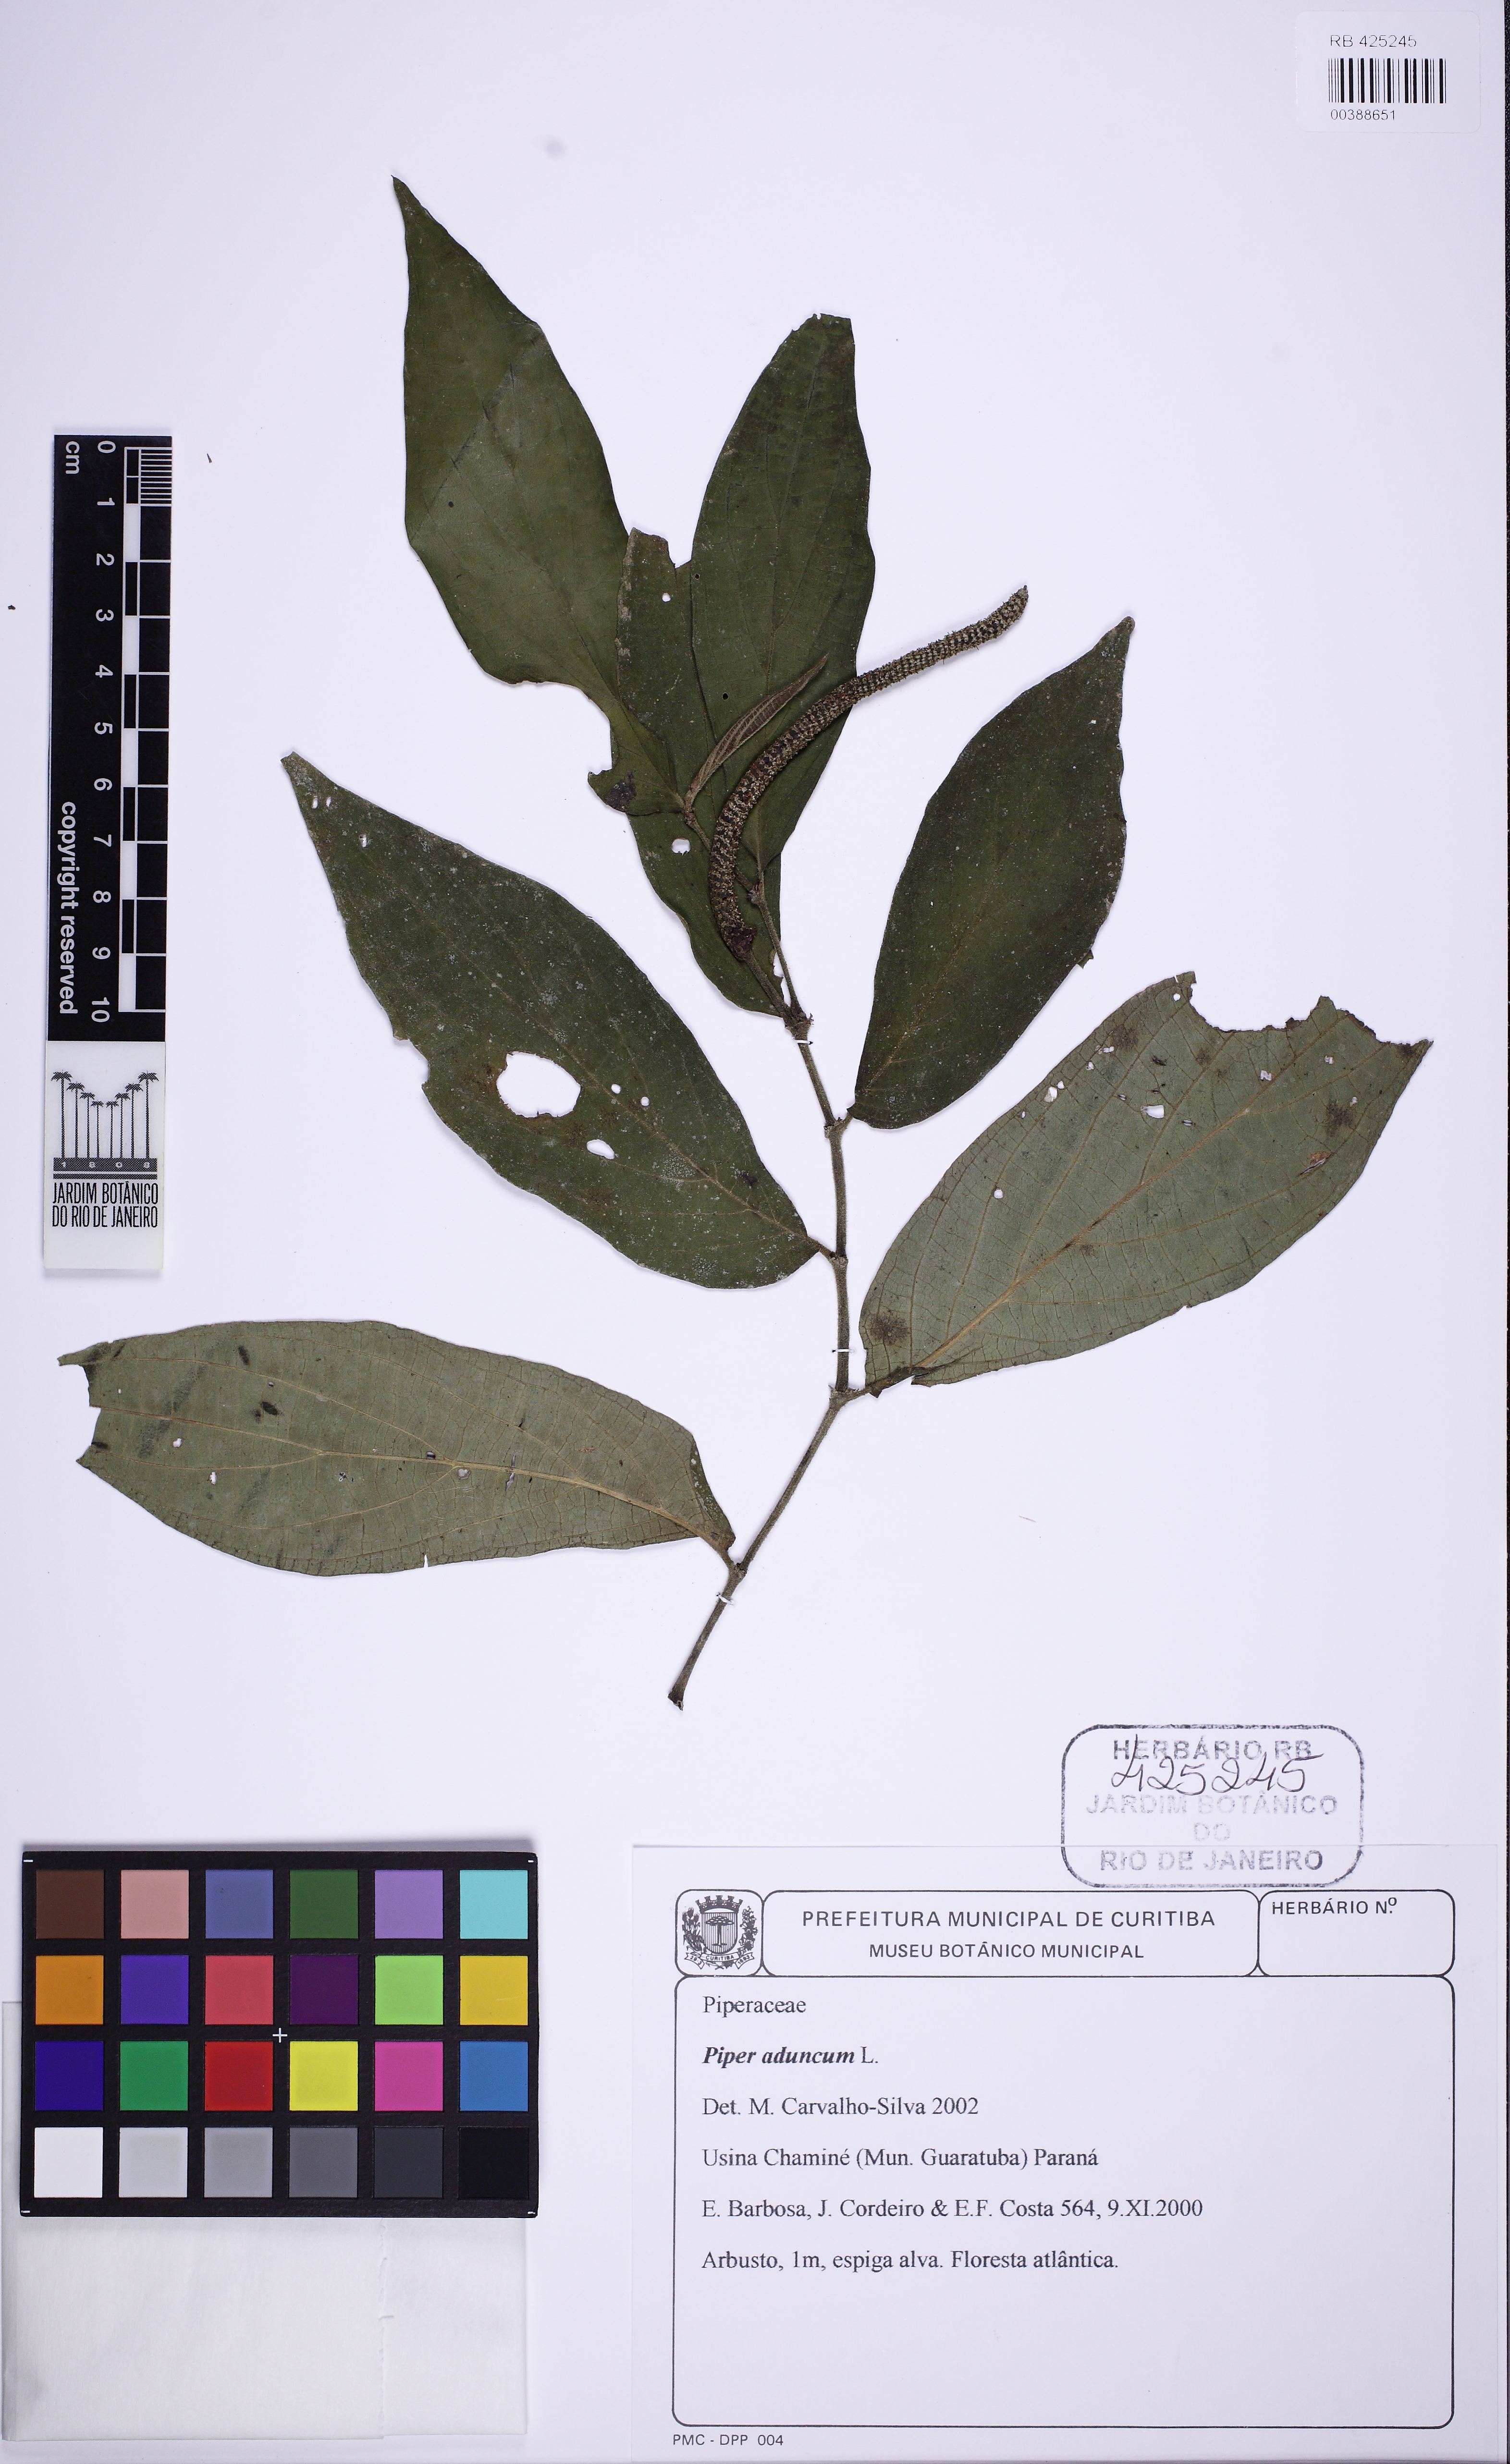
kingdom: Plantae
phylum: Tracheophyta
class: Magnoliopsida
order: Piperales
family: Piperaceae
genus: Piper
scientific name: Piper aduncum
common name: Spiked pepper
